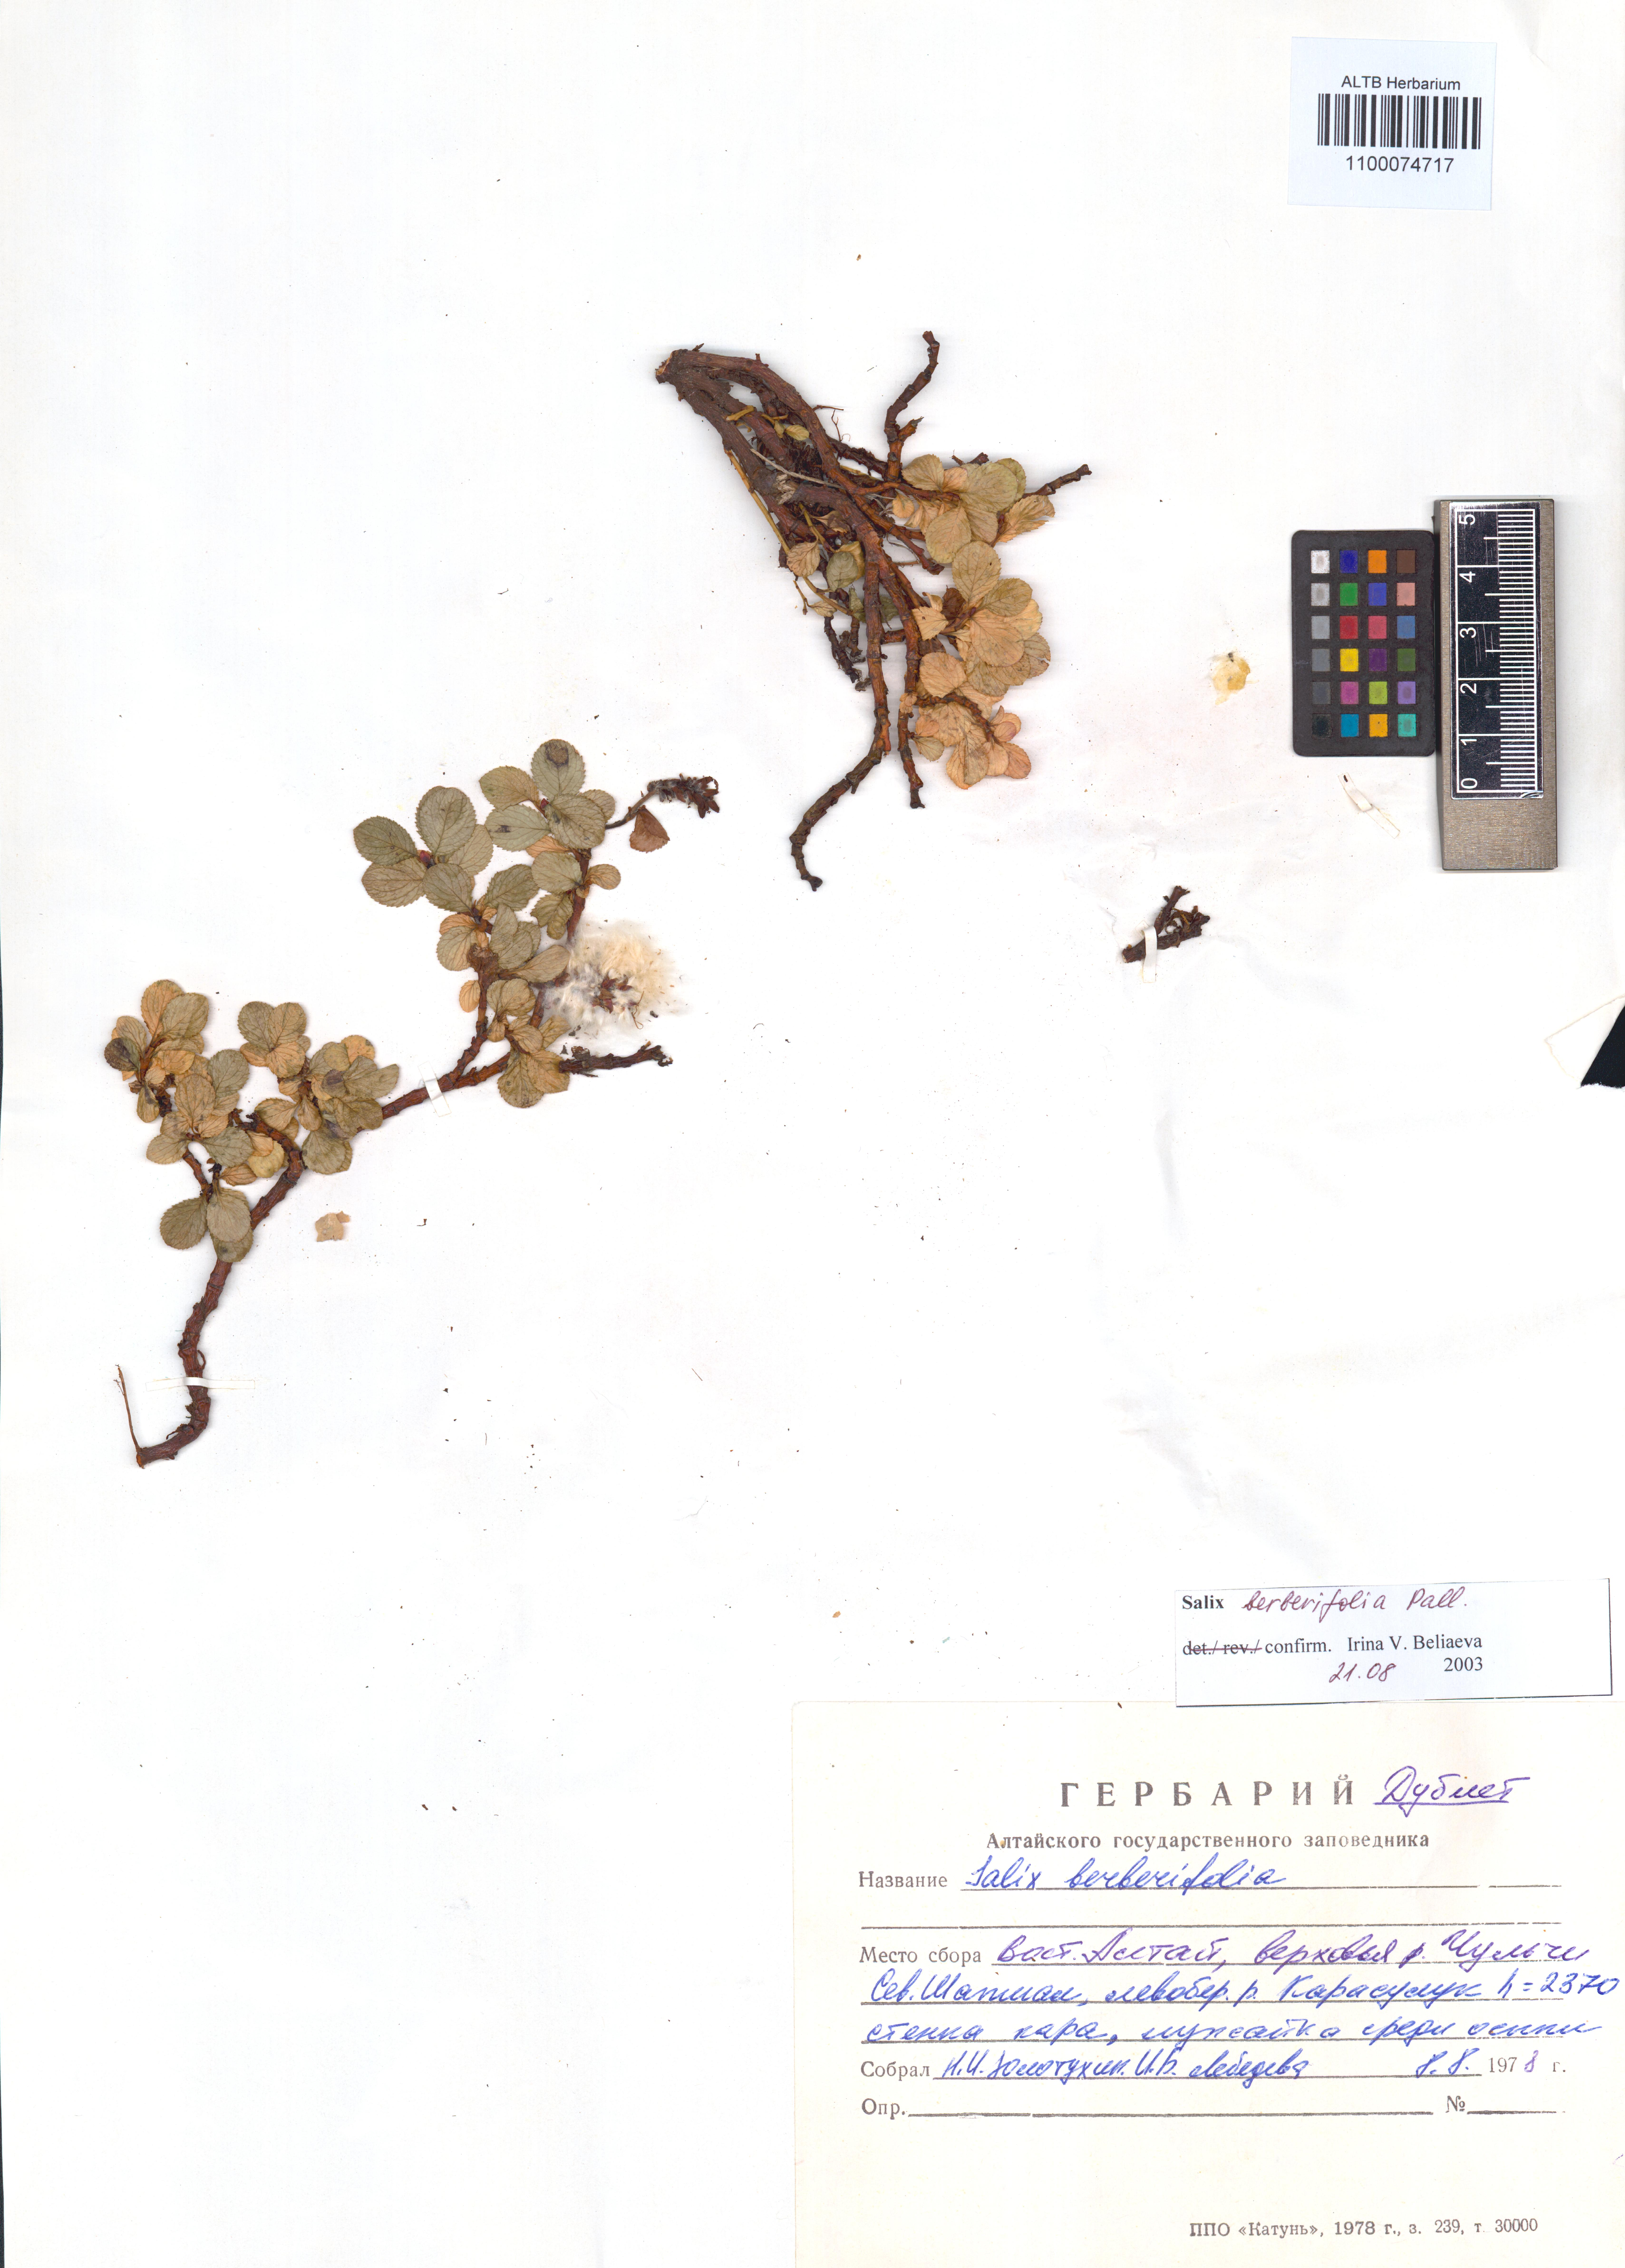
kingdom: Plantae
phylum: Tracheophyta
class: Magnoliopsida
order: Malpighiales
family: Salicaceae
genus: Salix
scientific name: Salix berberifolia
